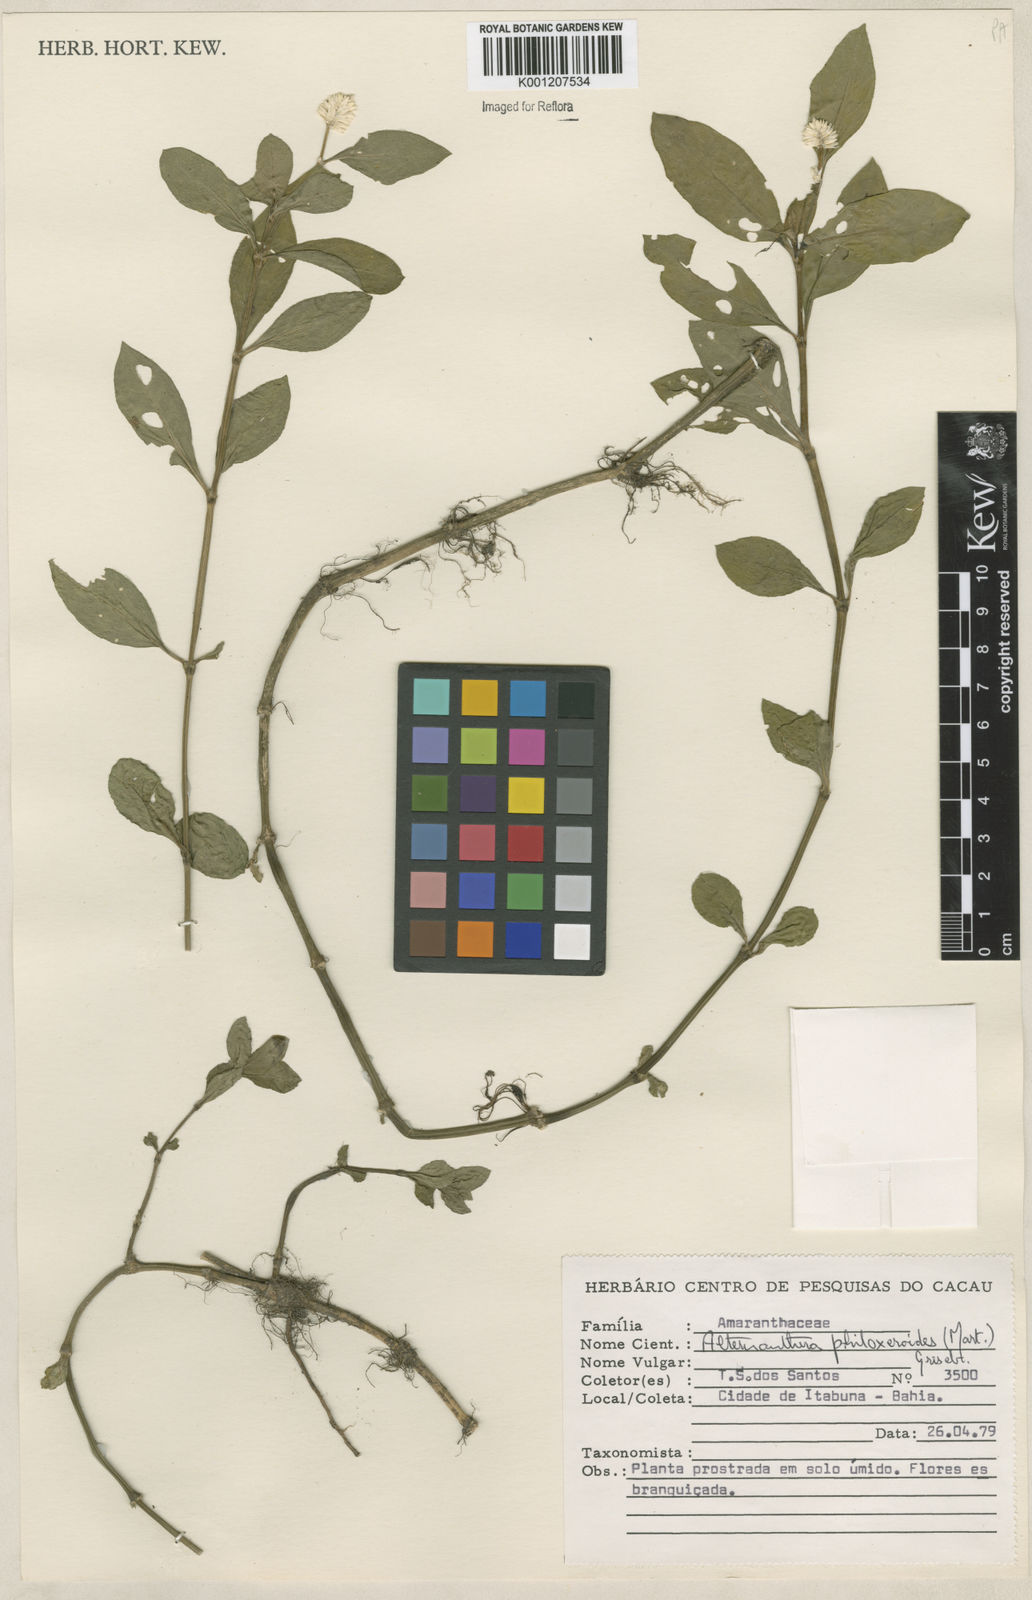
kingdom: Plantae
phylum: Tracheophyta
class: Magnoliopsida
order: Caryophyllales
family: Amaranthaceae
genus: Alternanthera
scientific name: Alternanthera philoxeroides
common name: Alligatorweed
